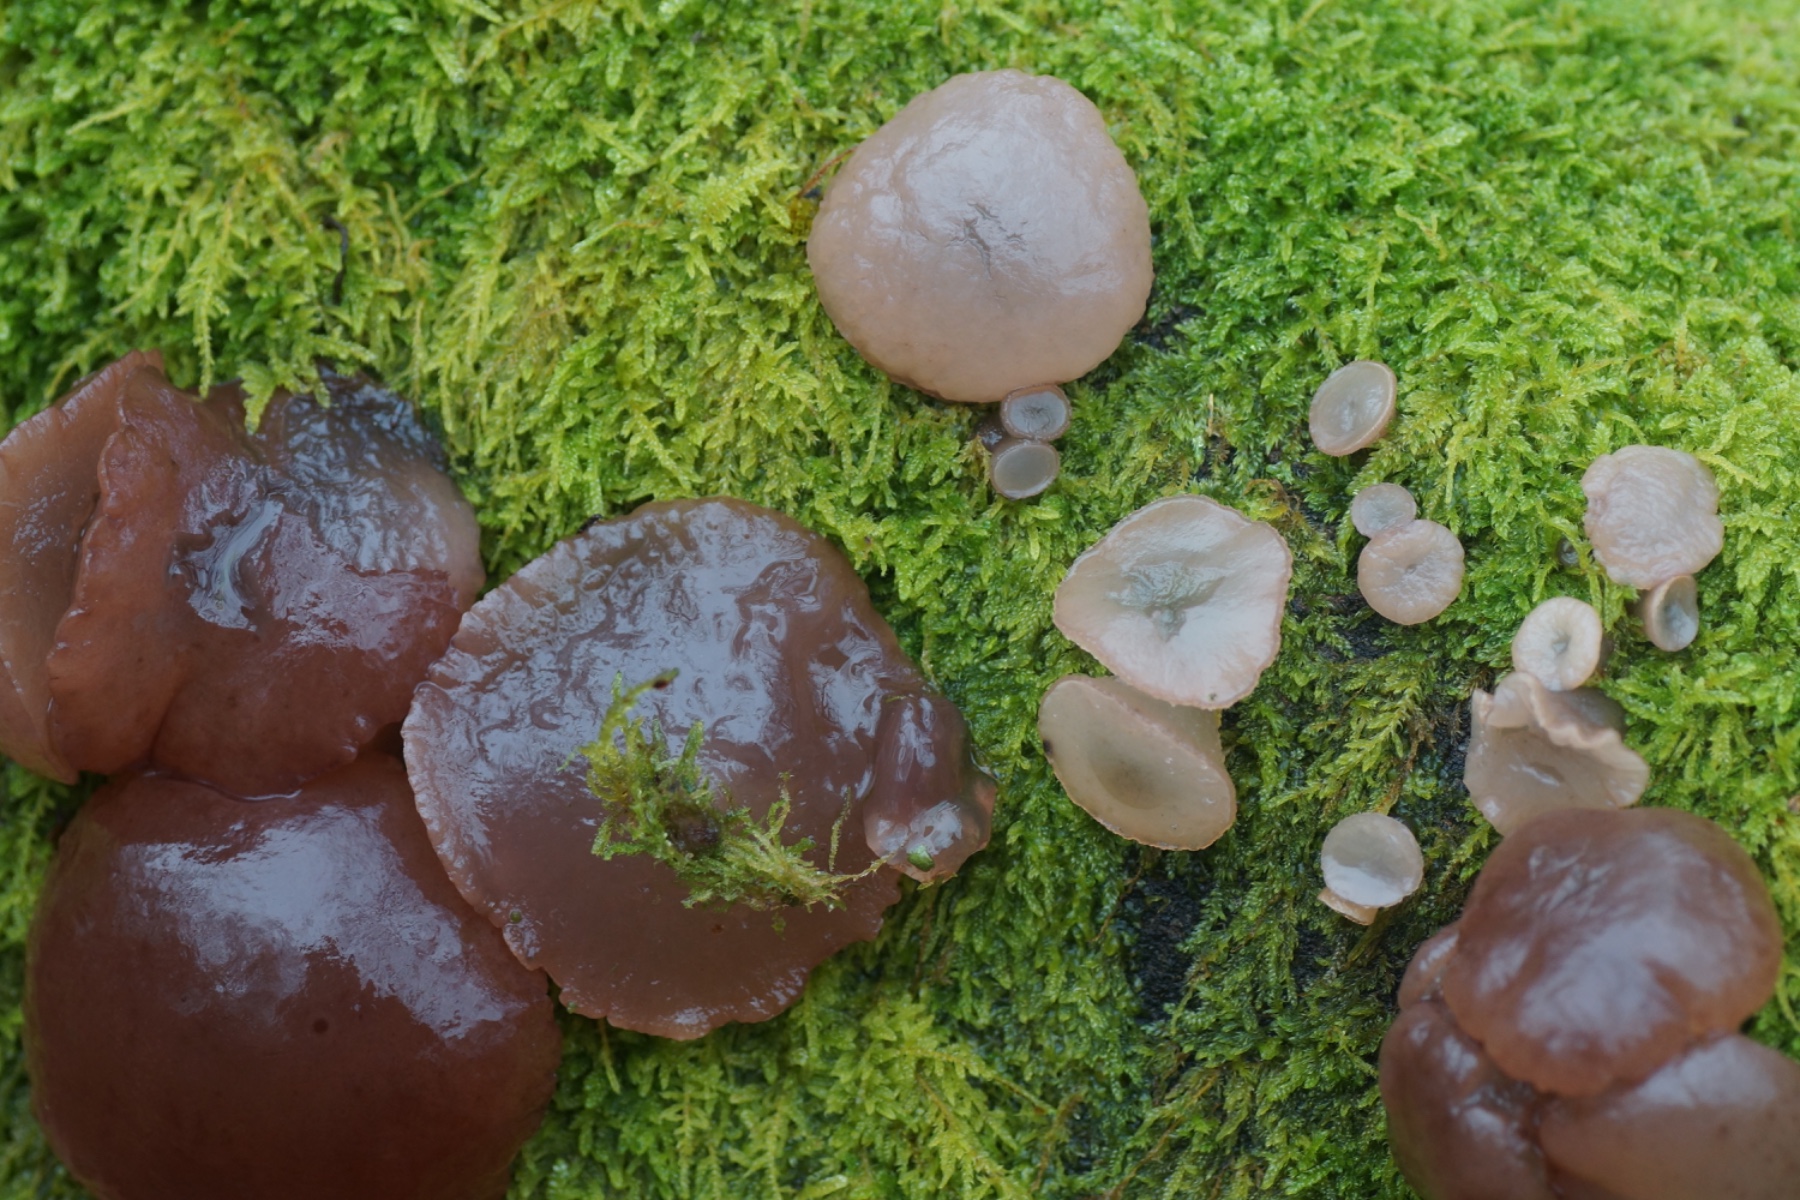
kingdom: Fungi
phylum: Ascomycota
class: Leotiomycetes
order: Helotiales
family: Gelatinodiscaceae
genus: Neobulgaria
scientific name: Neobulgaria pura
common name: bleg bævreskive
